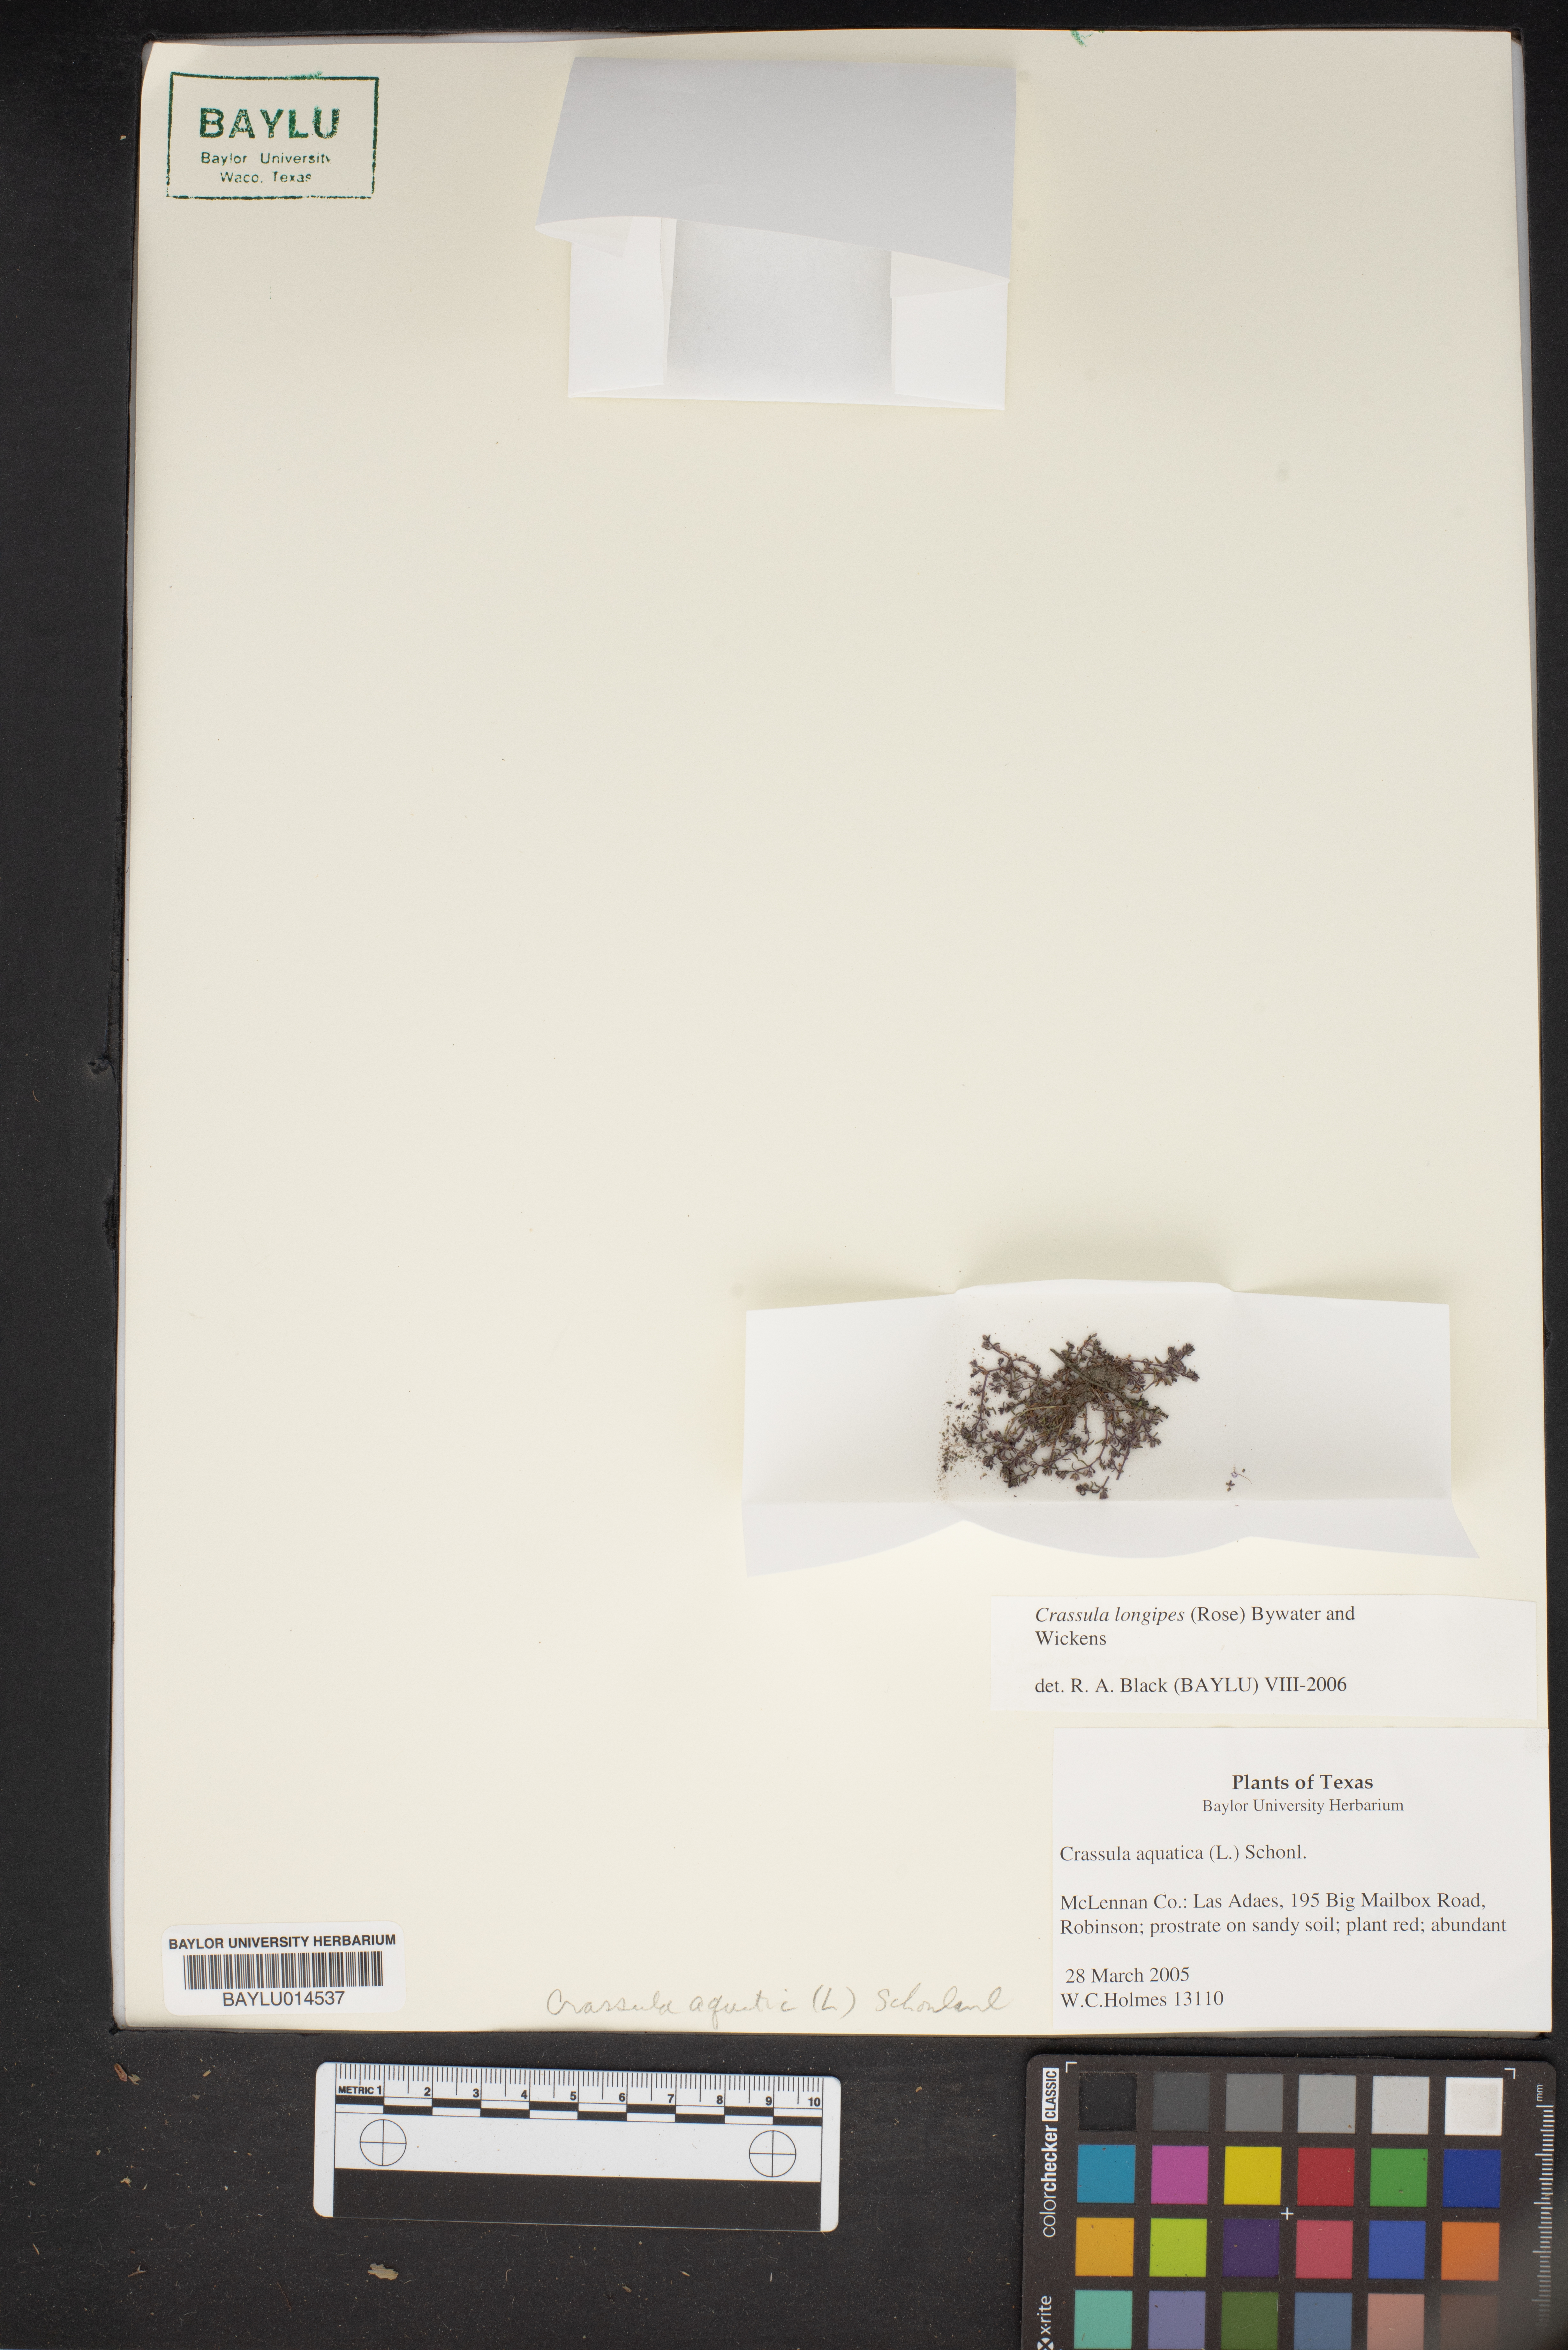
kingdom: Plantae
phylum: Tracheophyta
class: Magnoliopsida
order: Saxifragales
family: Crassulaceae
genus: Crassula
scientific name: Crassula longipes
